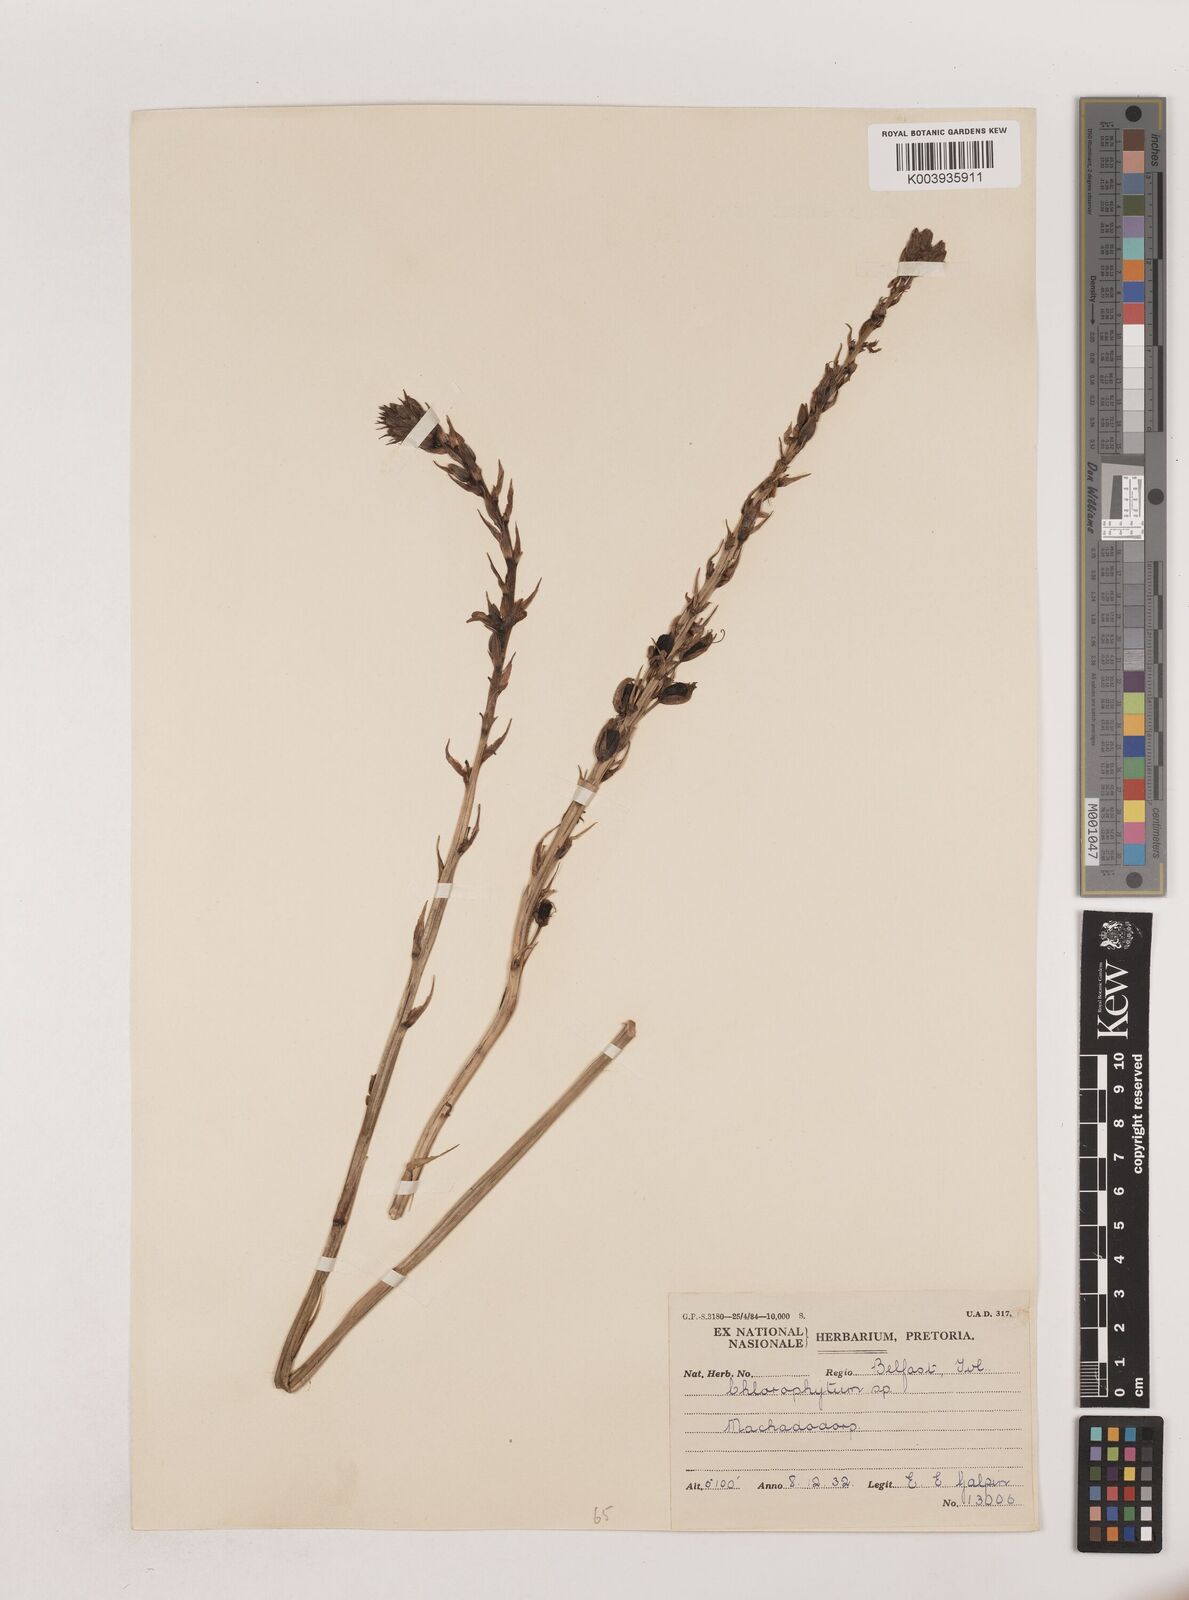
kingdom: Plantae
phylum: Tracheophyta
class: Liliopsida
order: Asparagales
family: Asparagaceae
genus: Chlorophytum
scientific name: Chlorophytum bowkeri
